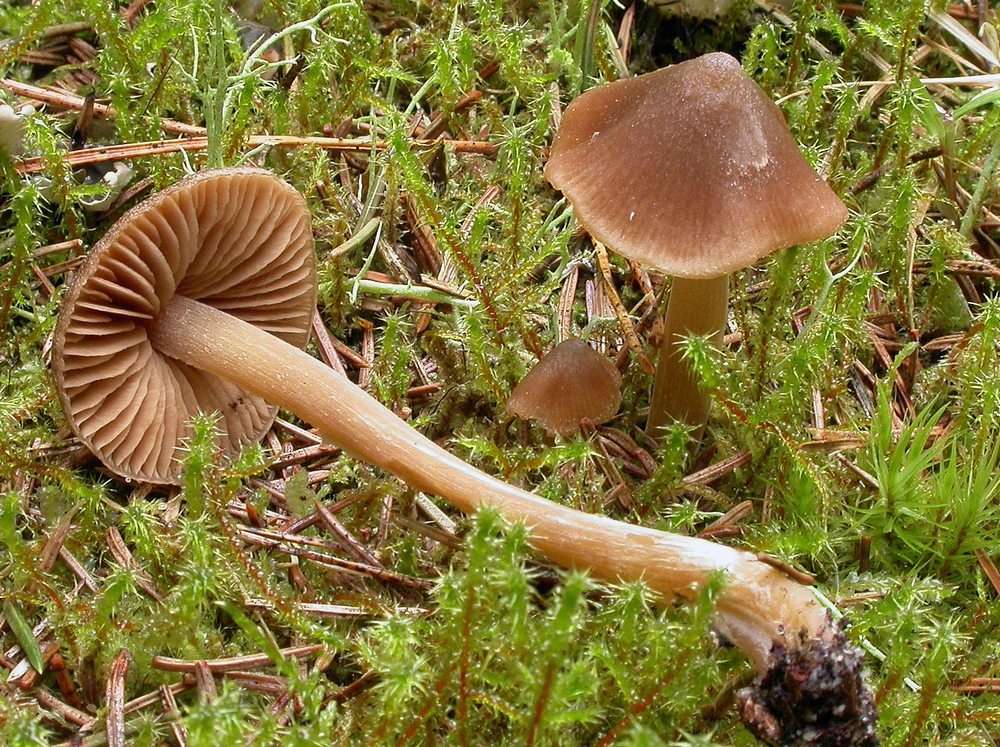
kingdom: Fungi
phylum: Basidiomycota
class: Agaricomycetes
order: Agaricales
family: Entolomataceae
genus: Entoloma
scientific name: Entoloma pallescens
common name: tidlig rødblad
